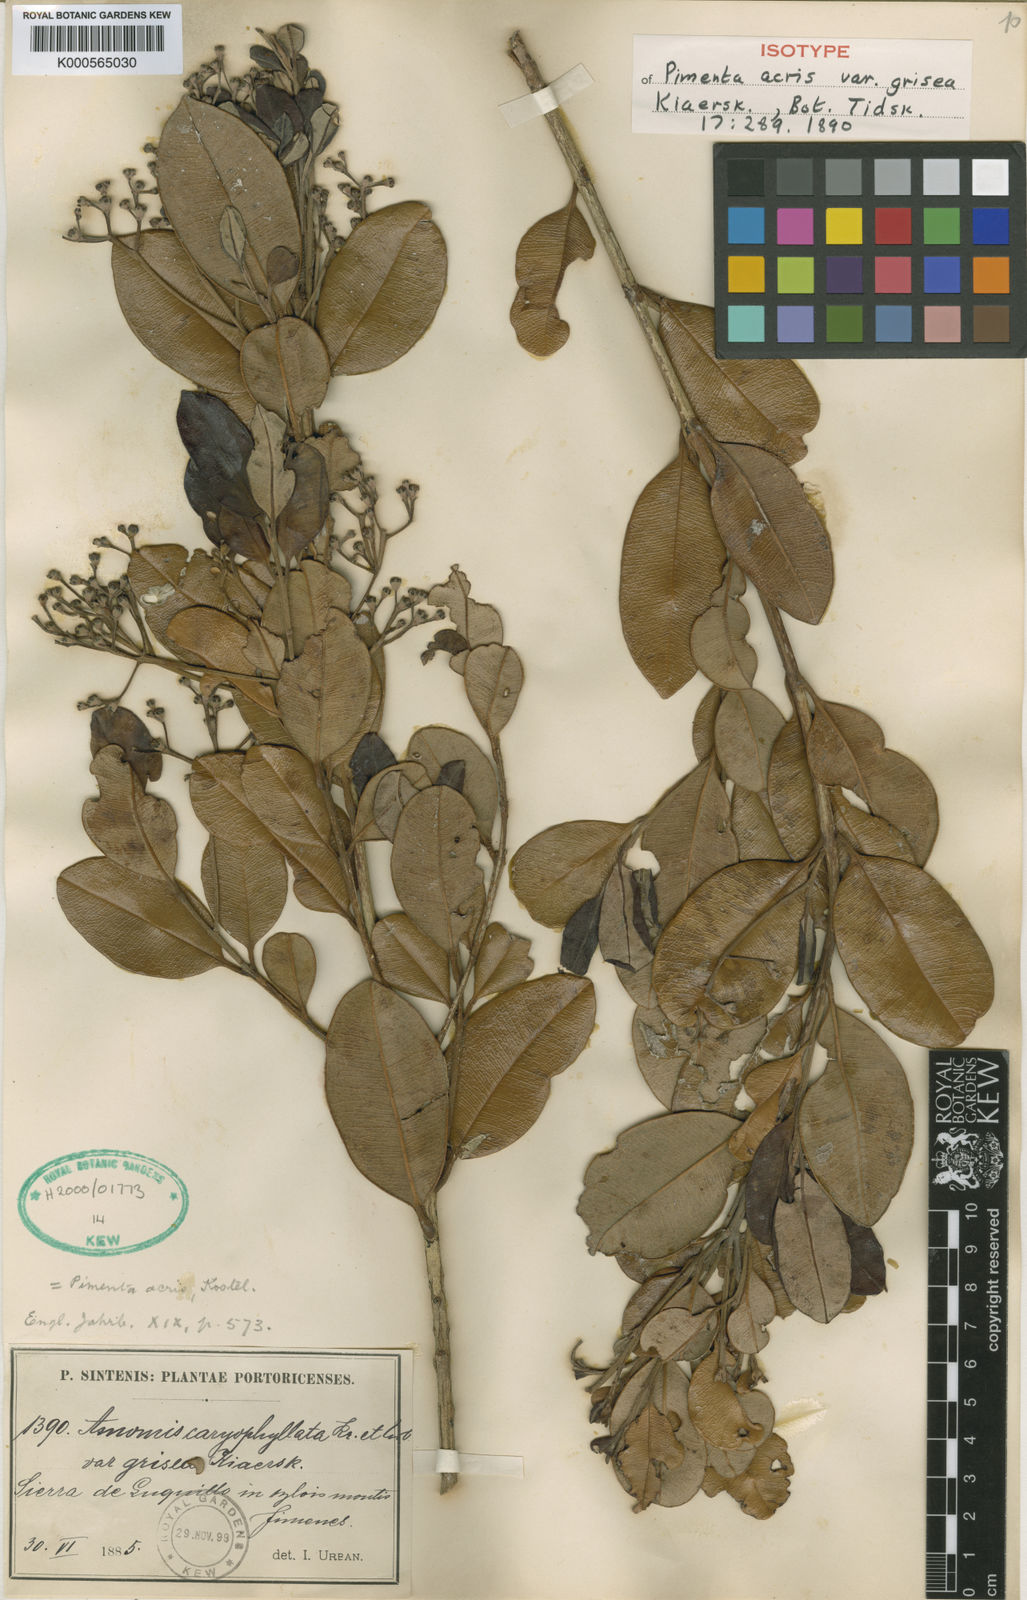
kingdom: Plantae
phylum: Tracheophyta
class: Magnoliopsida
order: Myrtales
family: Myrtaceae
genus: Pimenta
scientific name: Pimenta racemosa
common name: Bay rum tree
